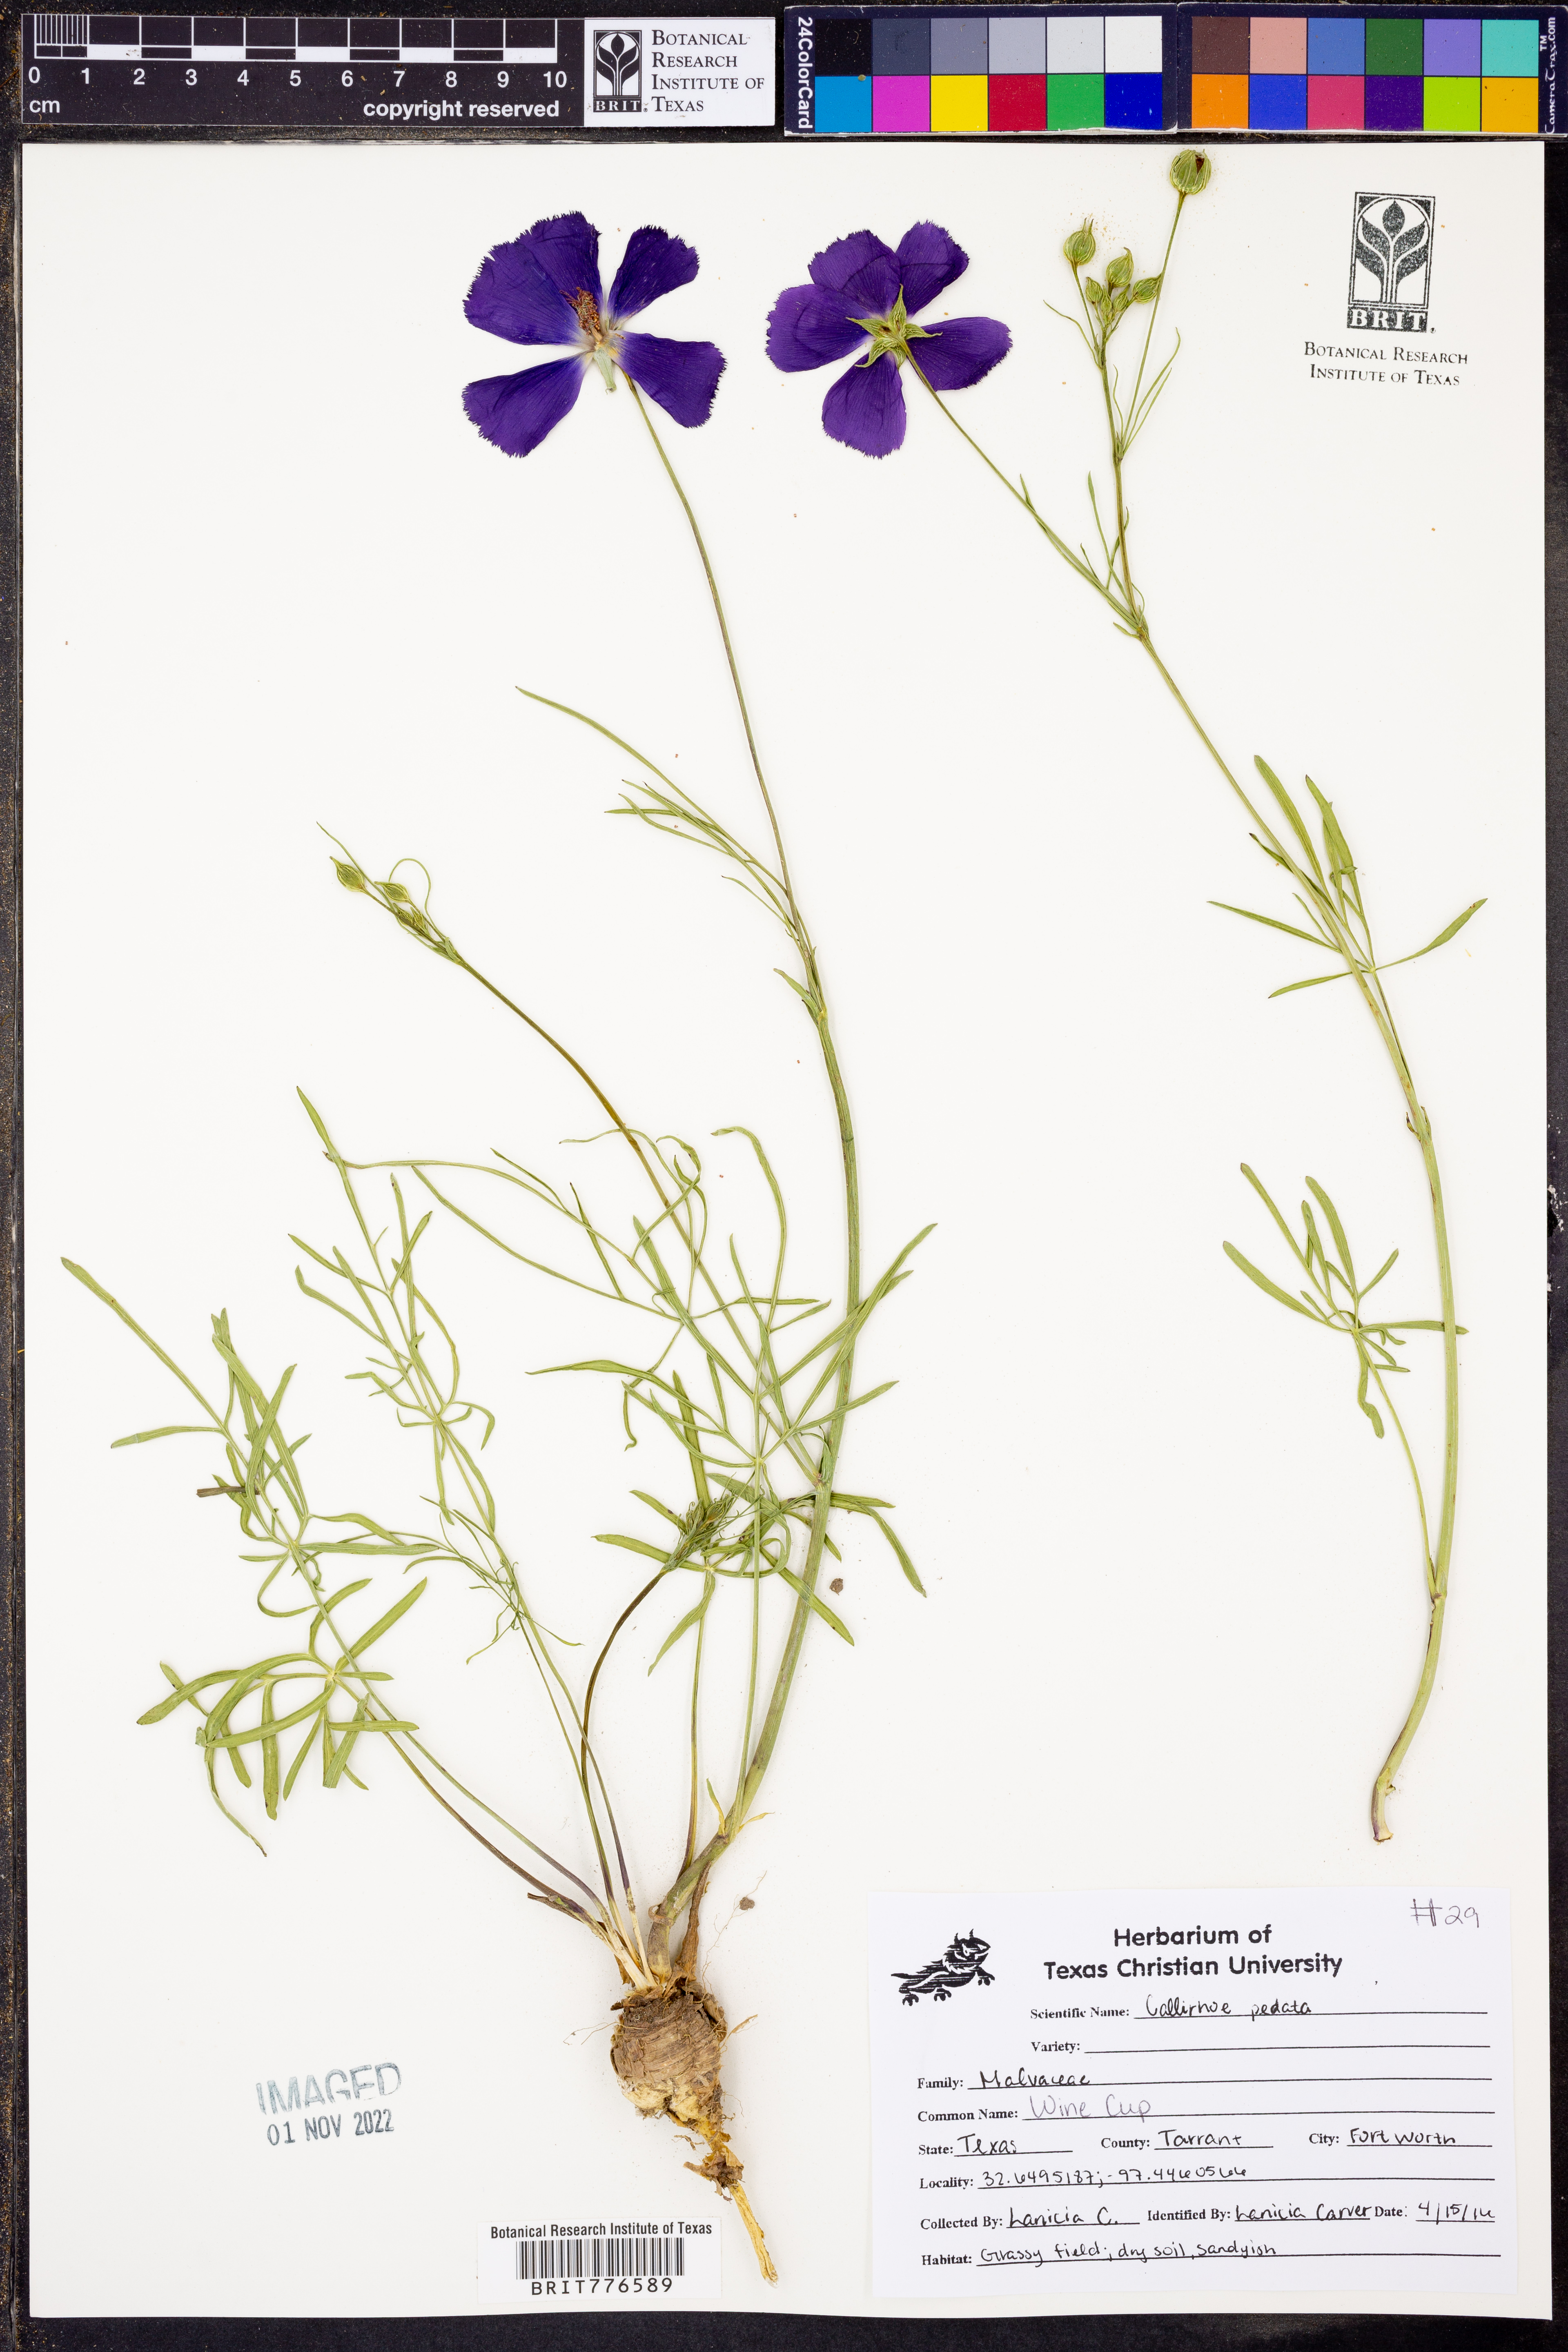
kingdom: Plantae
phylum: Tracheophyta
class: Magnoliopsida
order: Malvales
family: Malvaceae
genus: Callirhoe
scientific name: Callirhoe pedata
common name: Finger poppy-mallow
